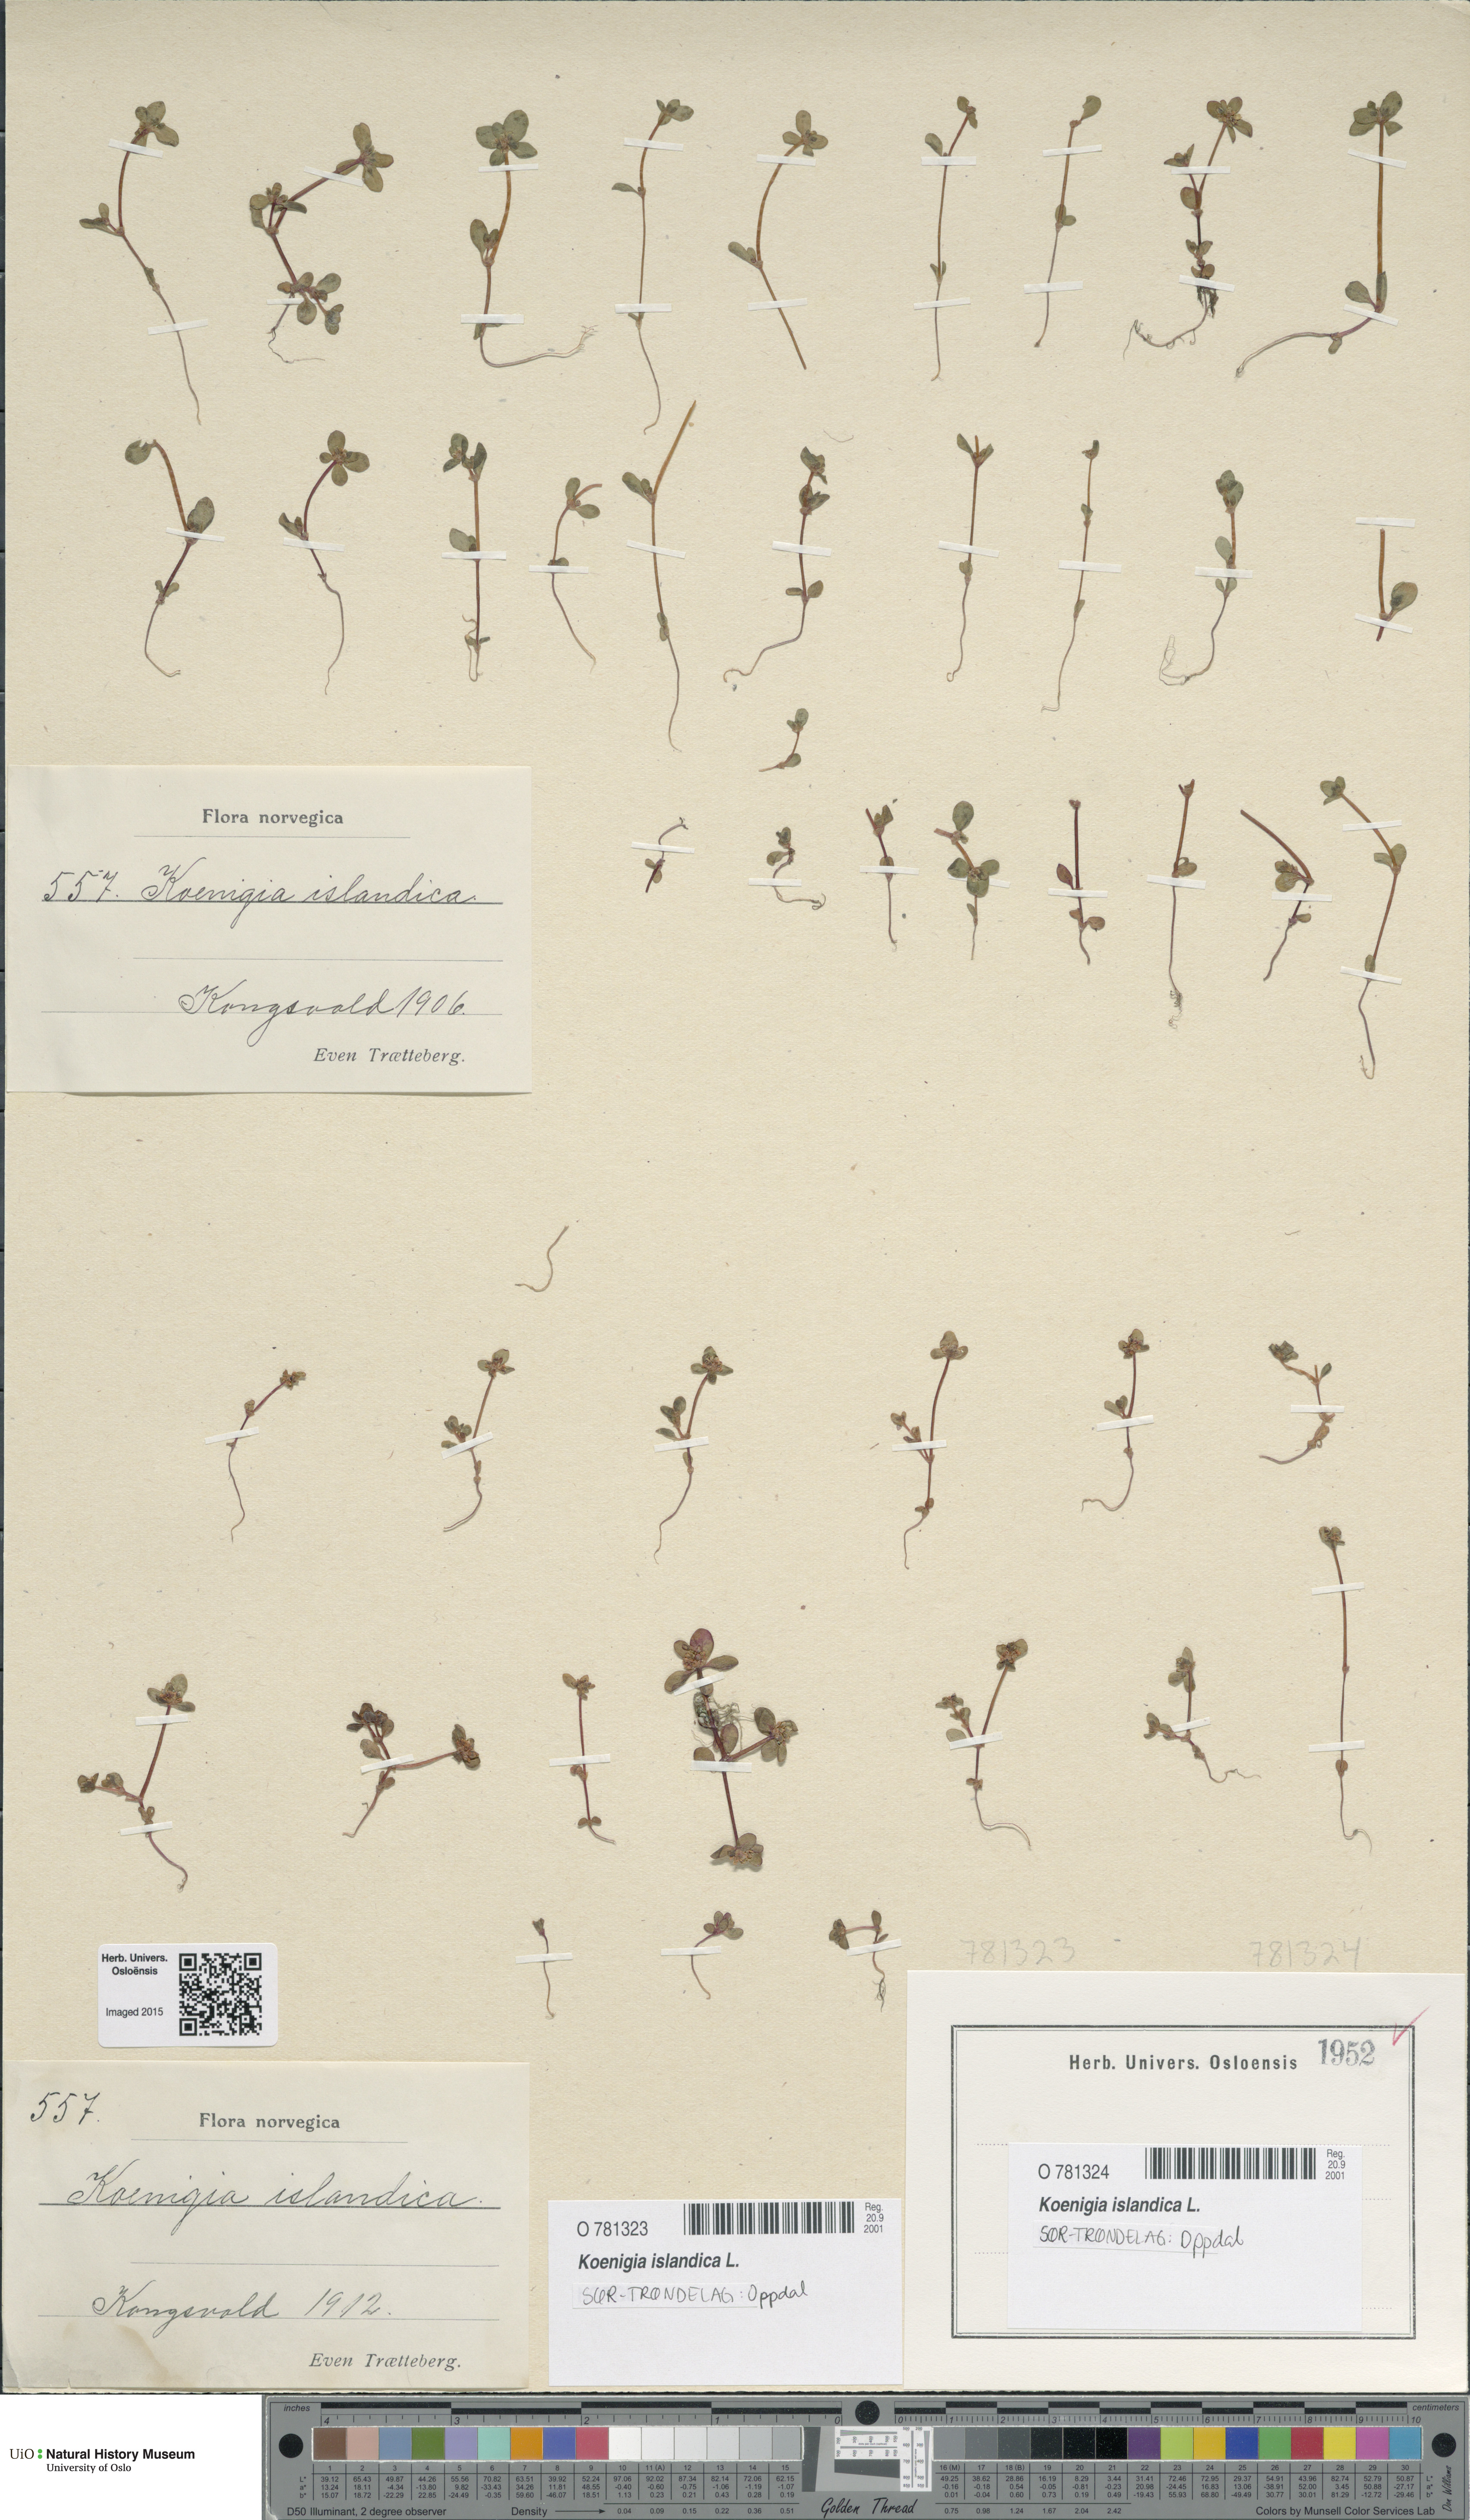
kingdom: Plantae
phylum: Tracheophyta
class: Magnoliopsida
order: Caryophyllales
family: Polygonaceae
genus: Koenigia
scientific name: Koenigia islandica
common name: Iceland-purslane
